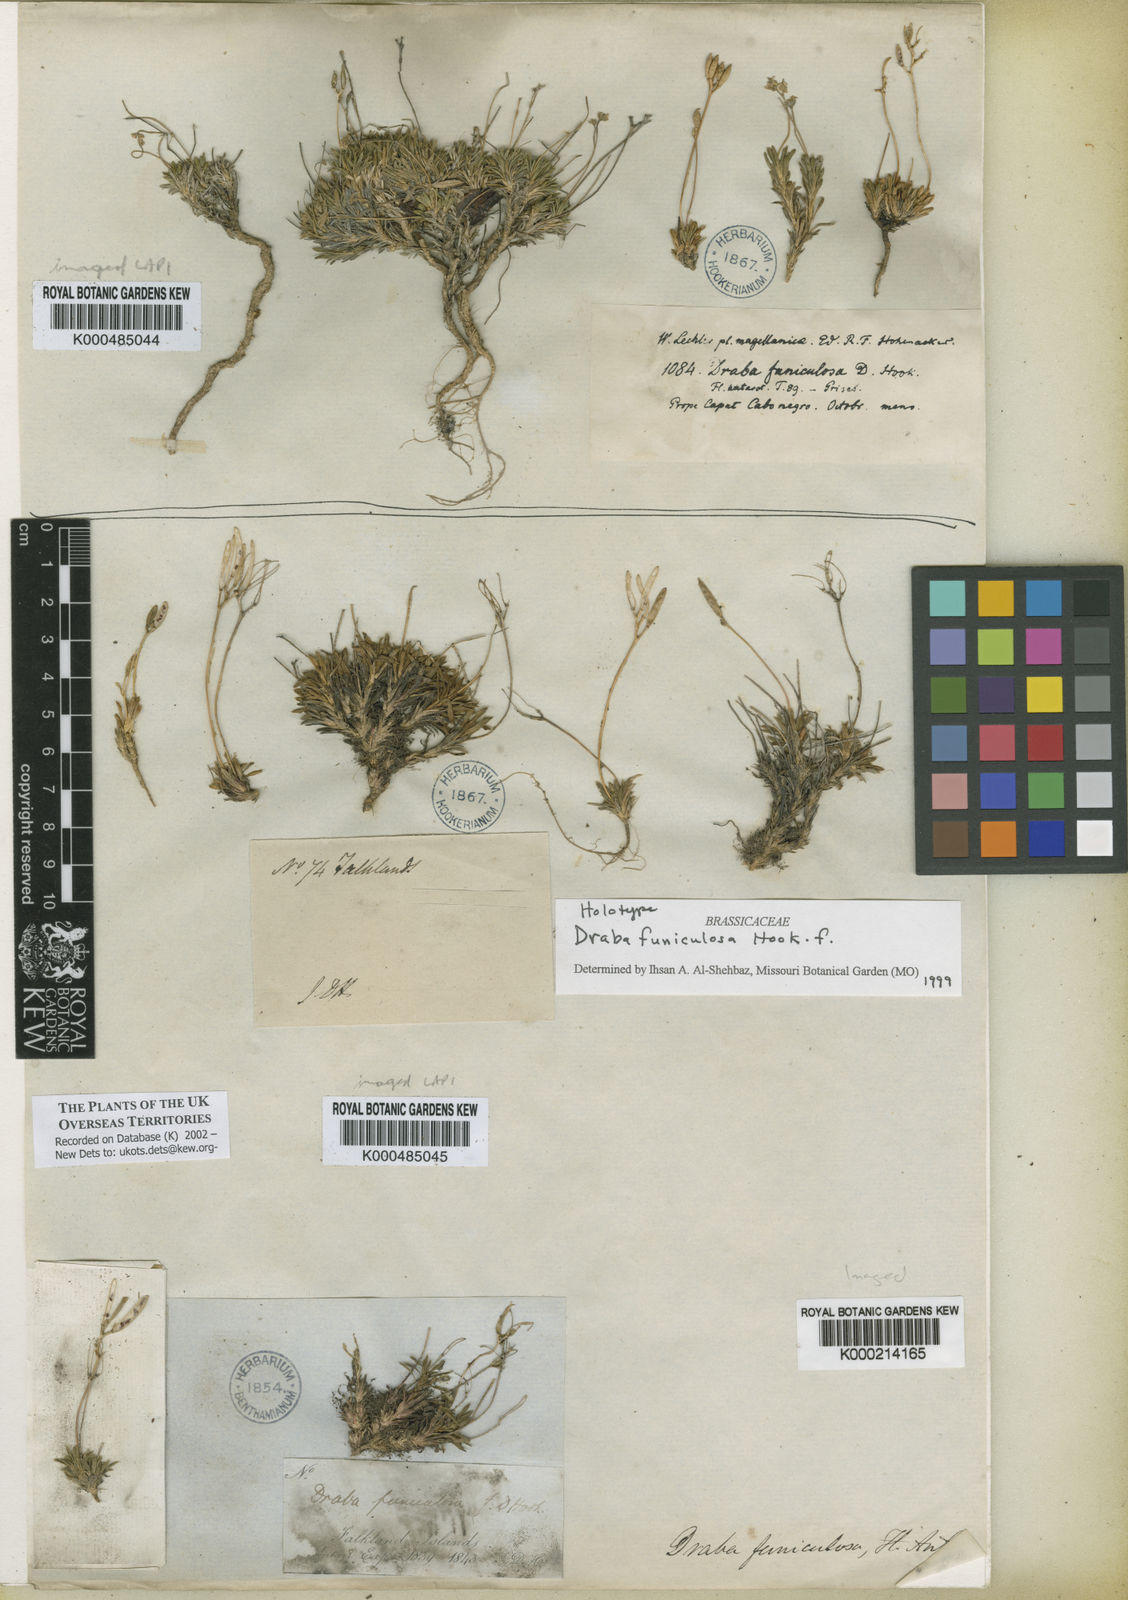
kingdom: Plantae
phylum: Tracheophyta
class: Magnoliopsida
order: Brassicales
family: Brassicaceae
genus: Draba
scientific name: Draba funiculosa
